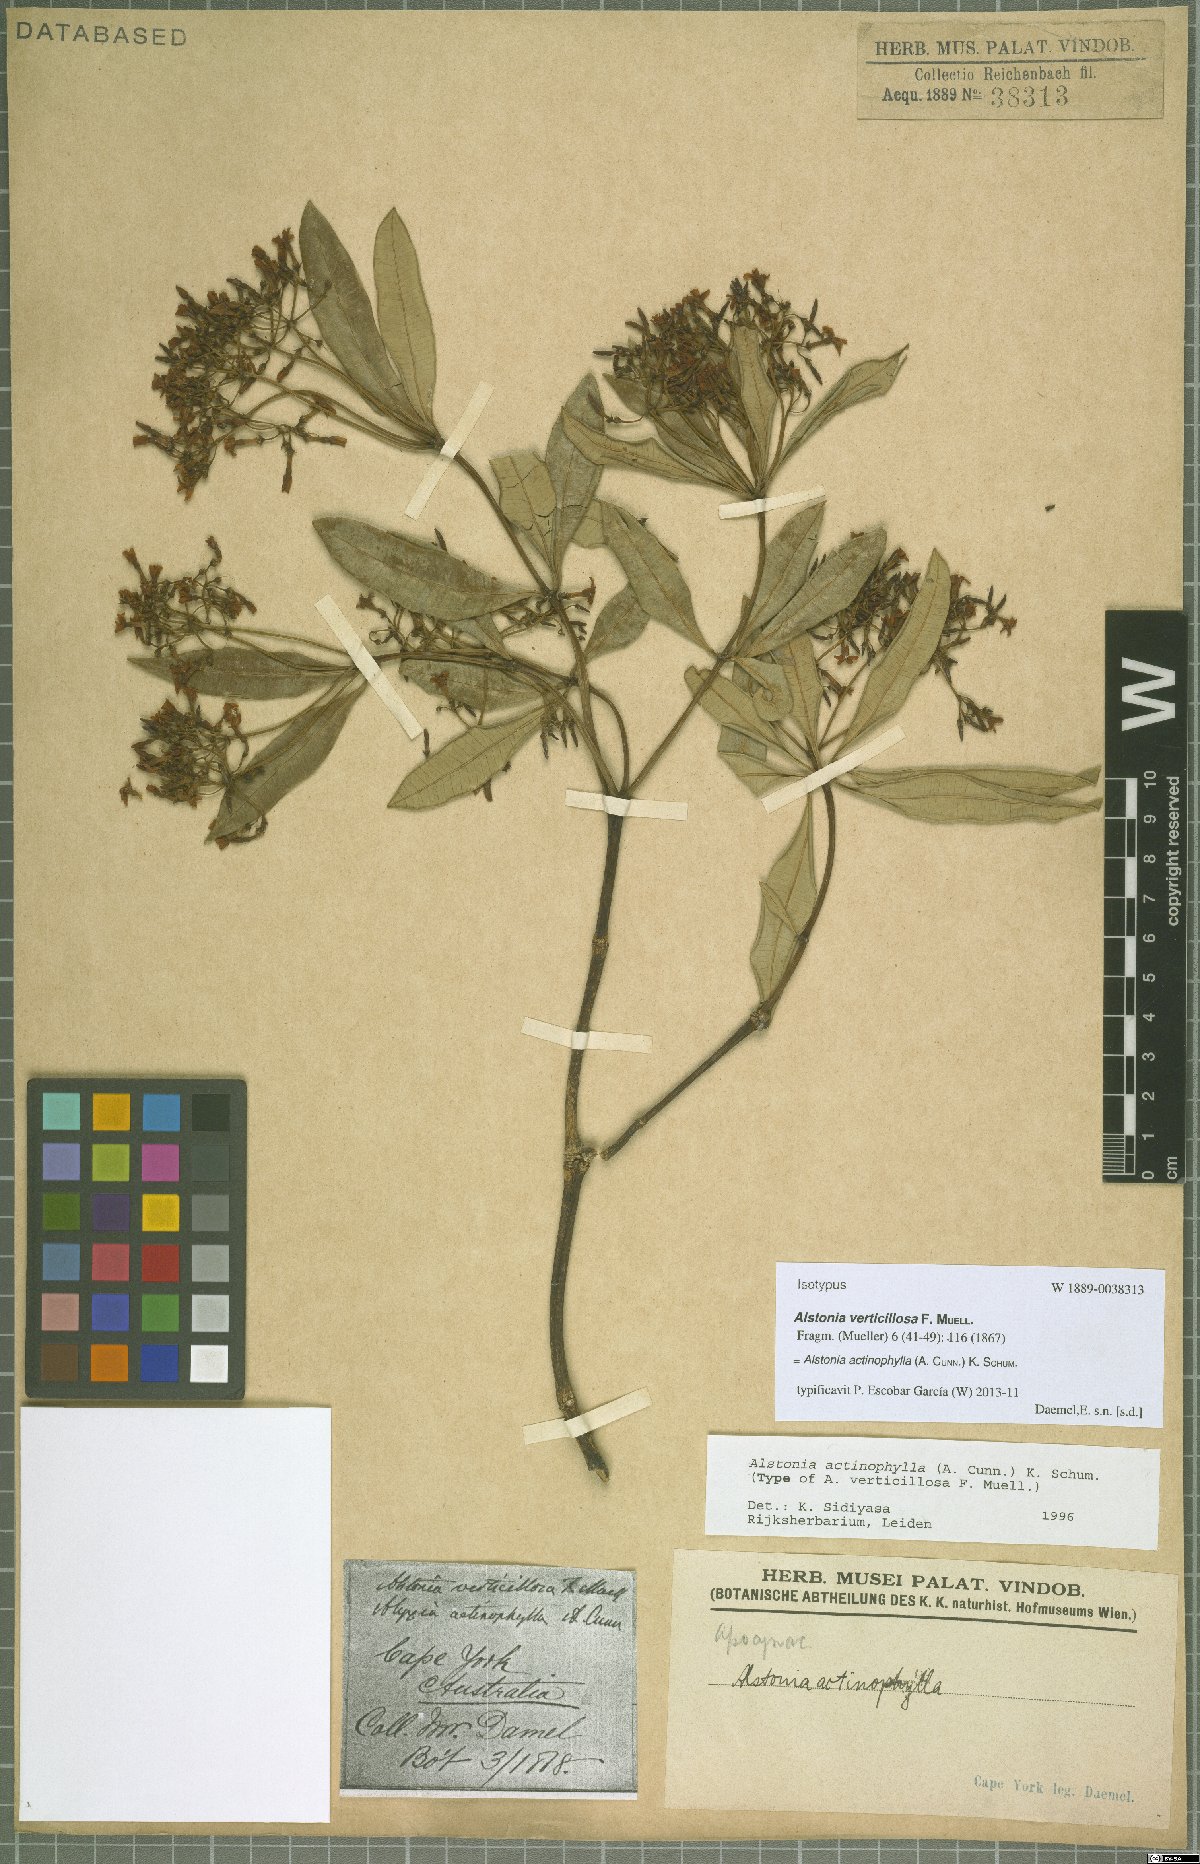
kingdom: Plantae
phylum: Tracheophyta
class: Magnoliopsida
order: Gentianales
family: Apocynaceae
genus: Alstonia
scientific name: Alstonia actinophylla
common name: Milkwood
